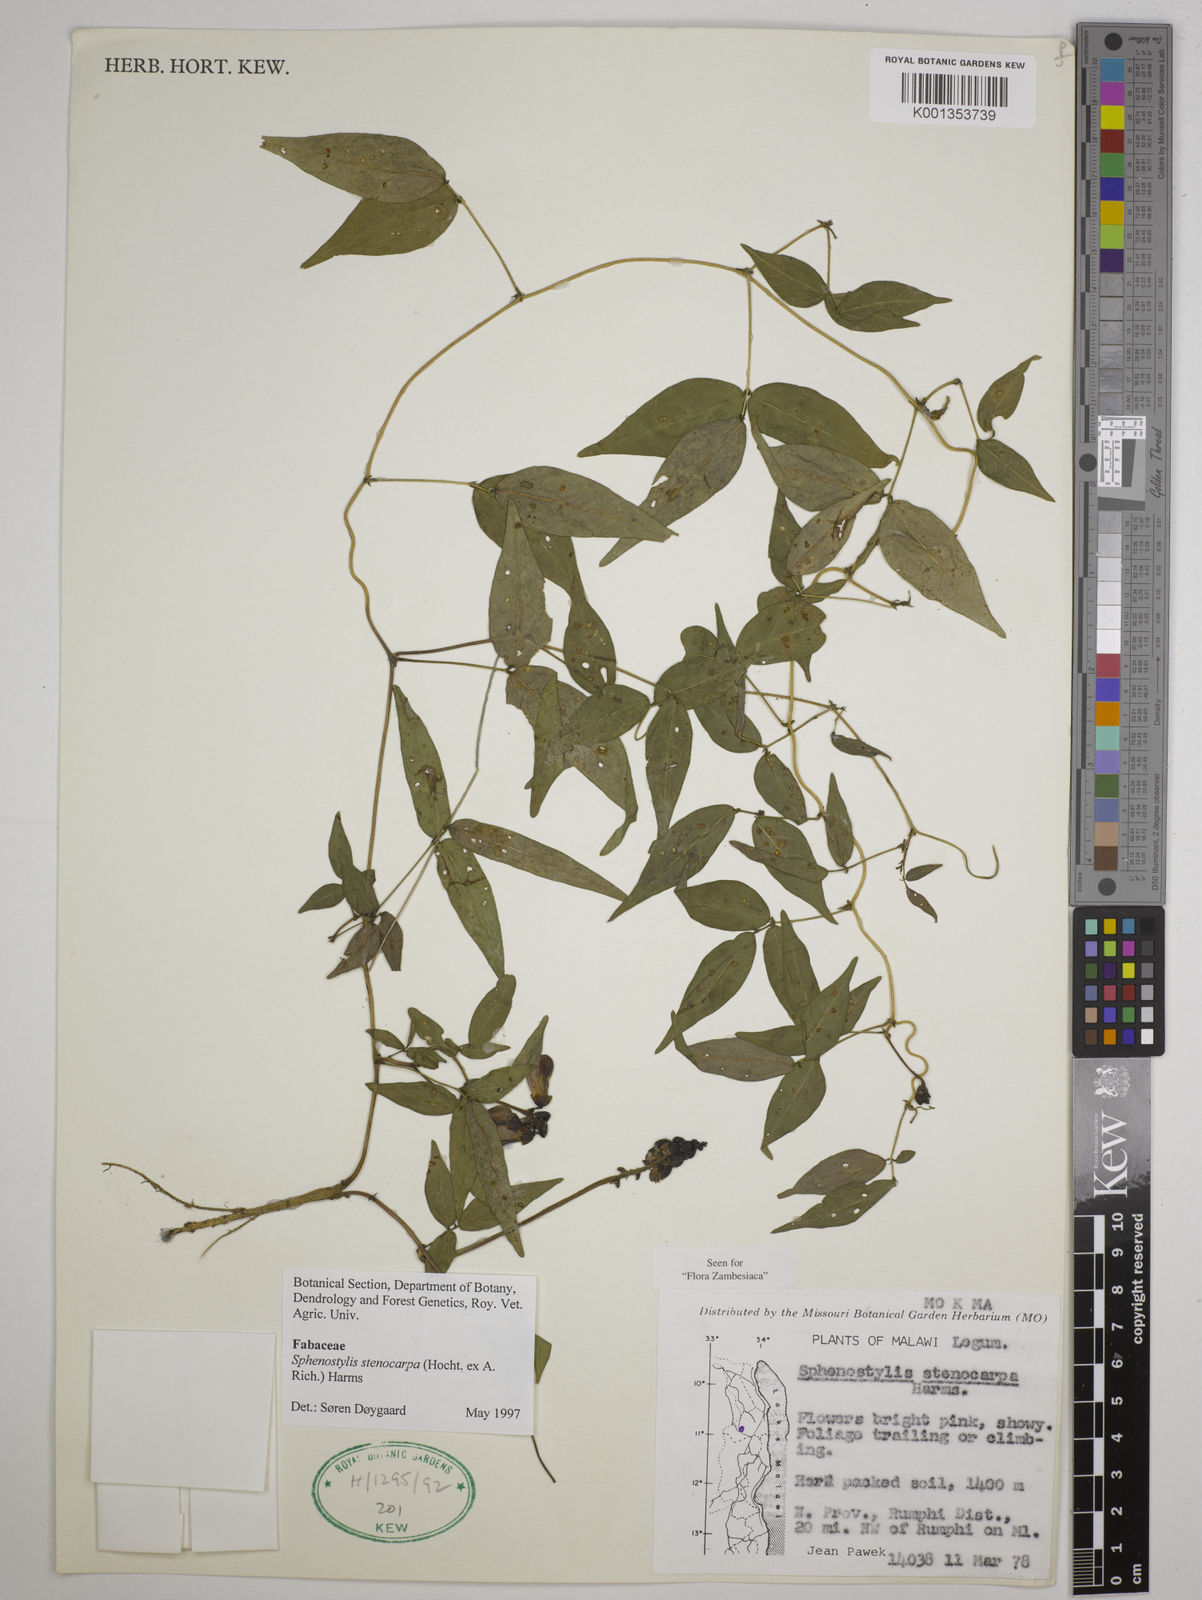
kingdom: Plantae
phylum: Tracheophyta
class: Magnoliopsida
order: Fabales
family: Fabaceae
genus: Sphenostylis
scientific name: Sphenostylis stenocarpa
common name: Yam-pea
